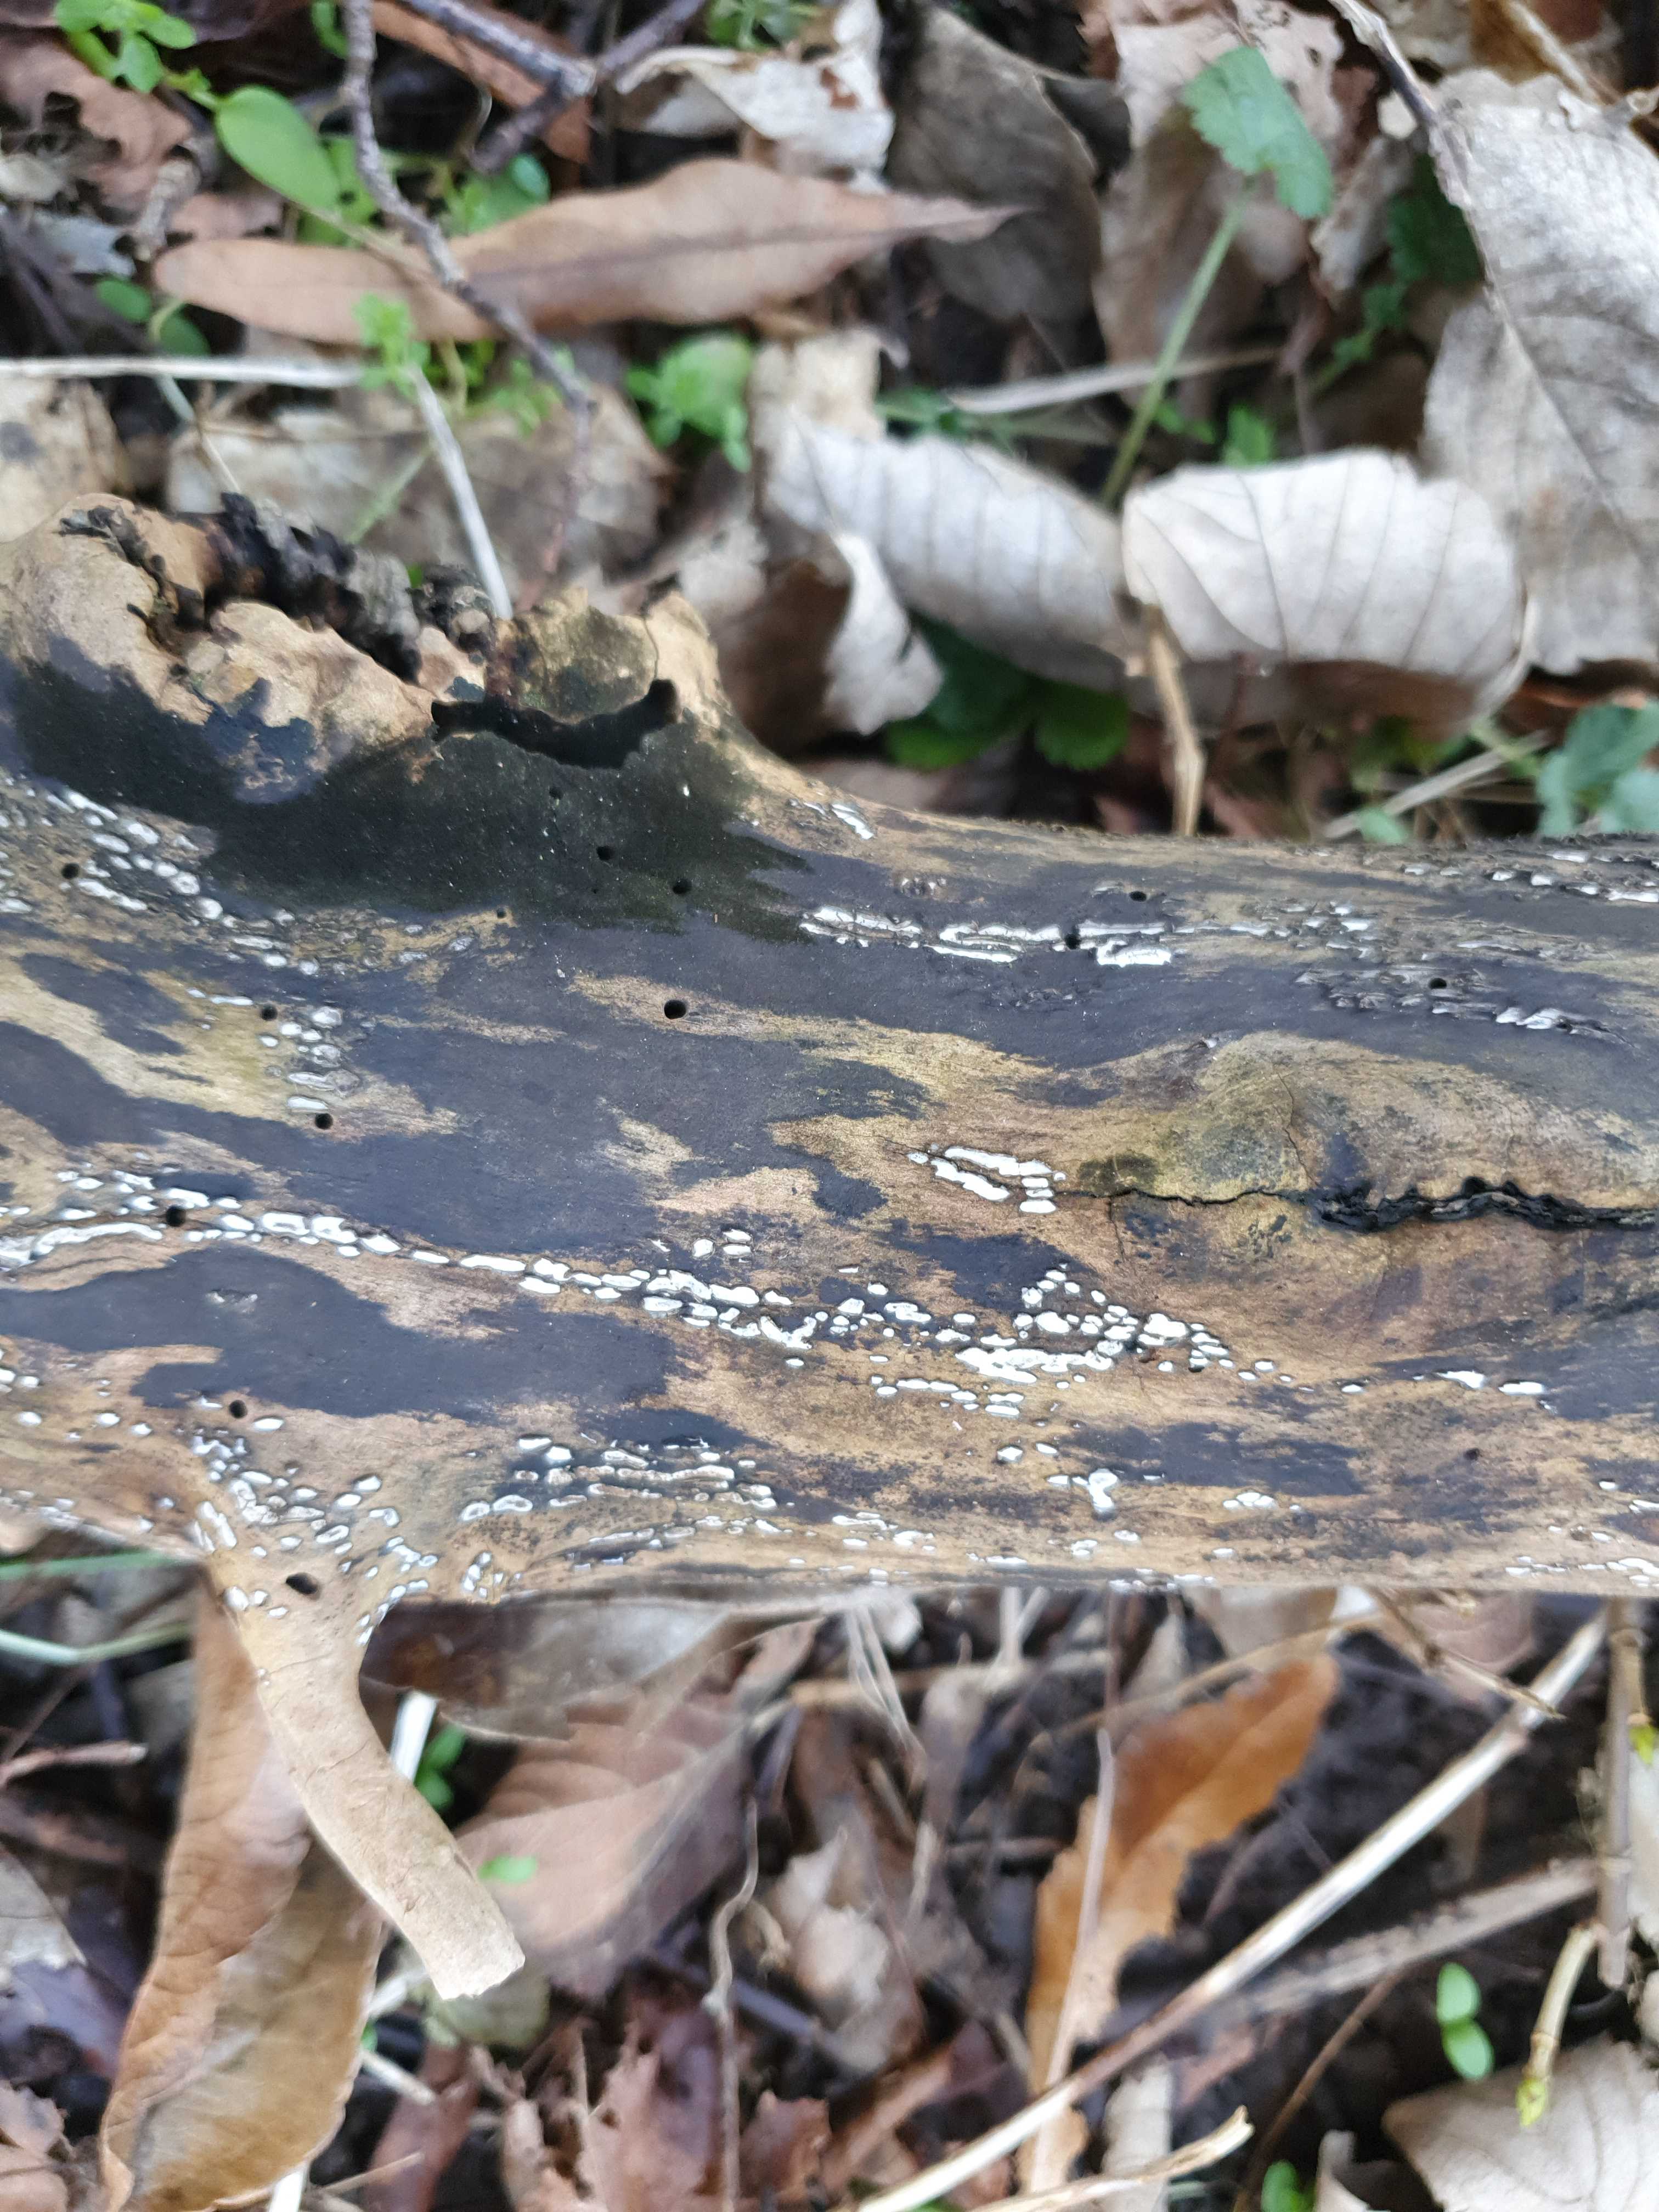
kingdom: Fungi
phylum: Ascomycota
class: Leotiomycetes
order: Chaetomellales
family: Marthamycetaceae
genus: Propolis
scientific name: Propolis farinosa
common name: almindelig vedsprængerskive
